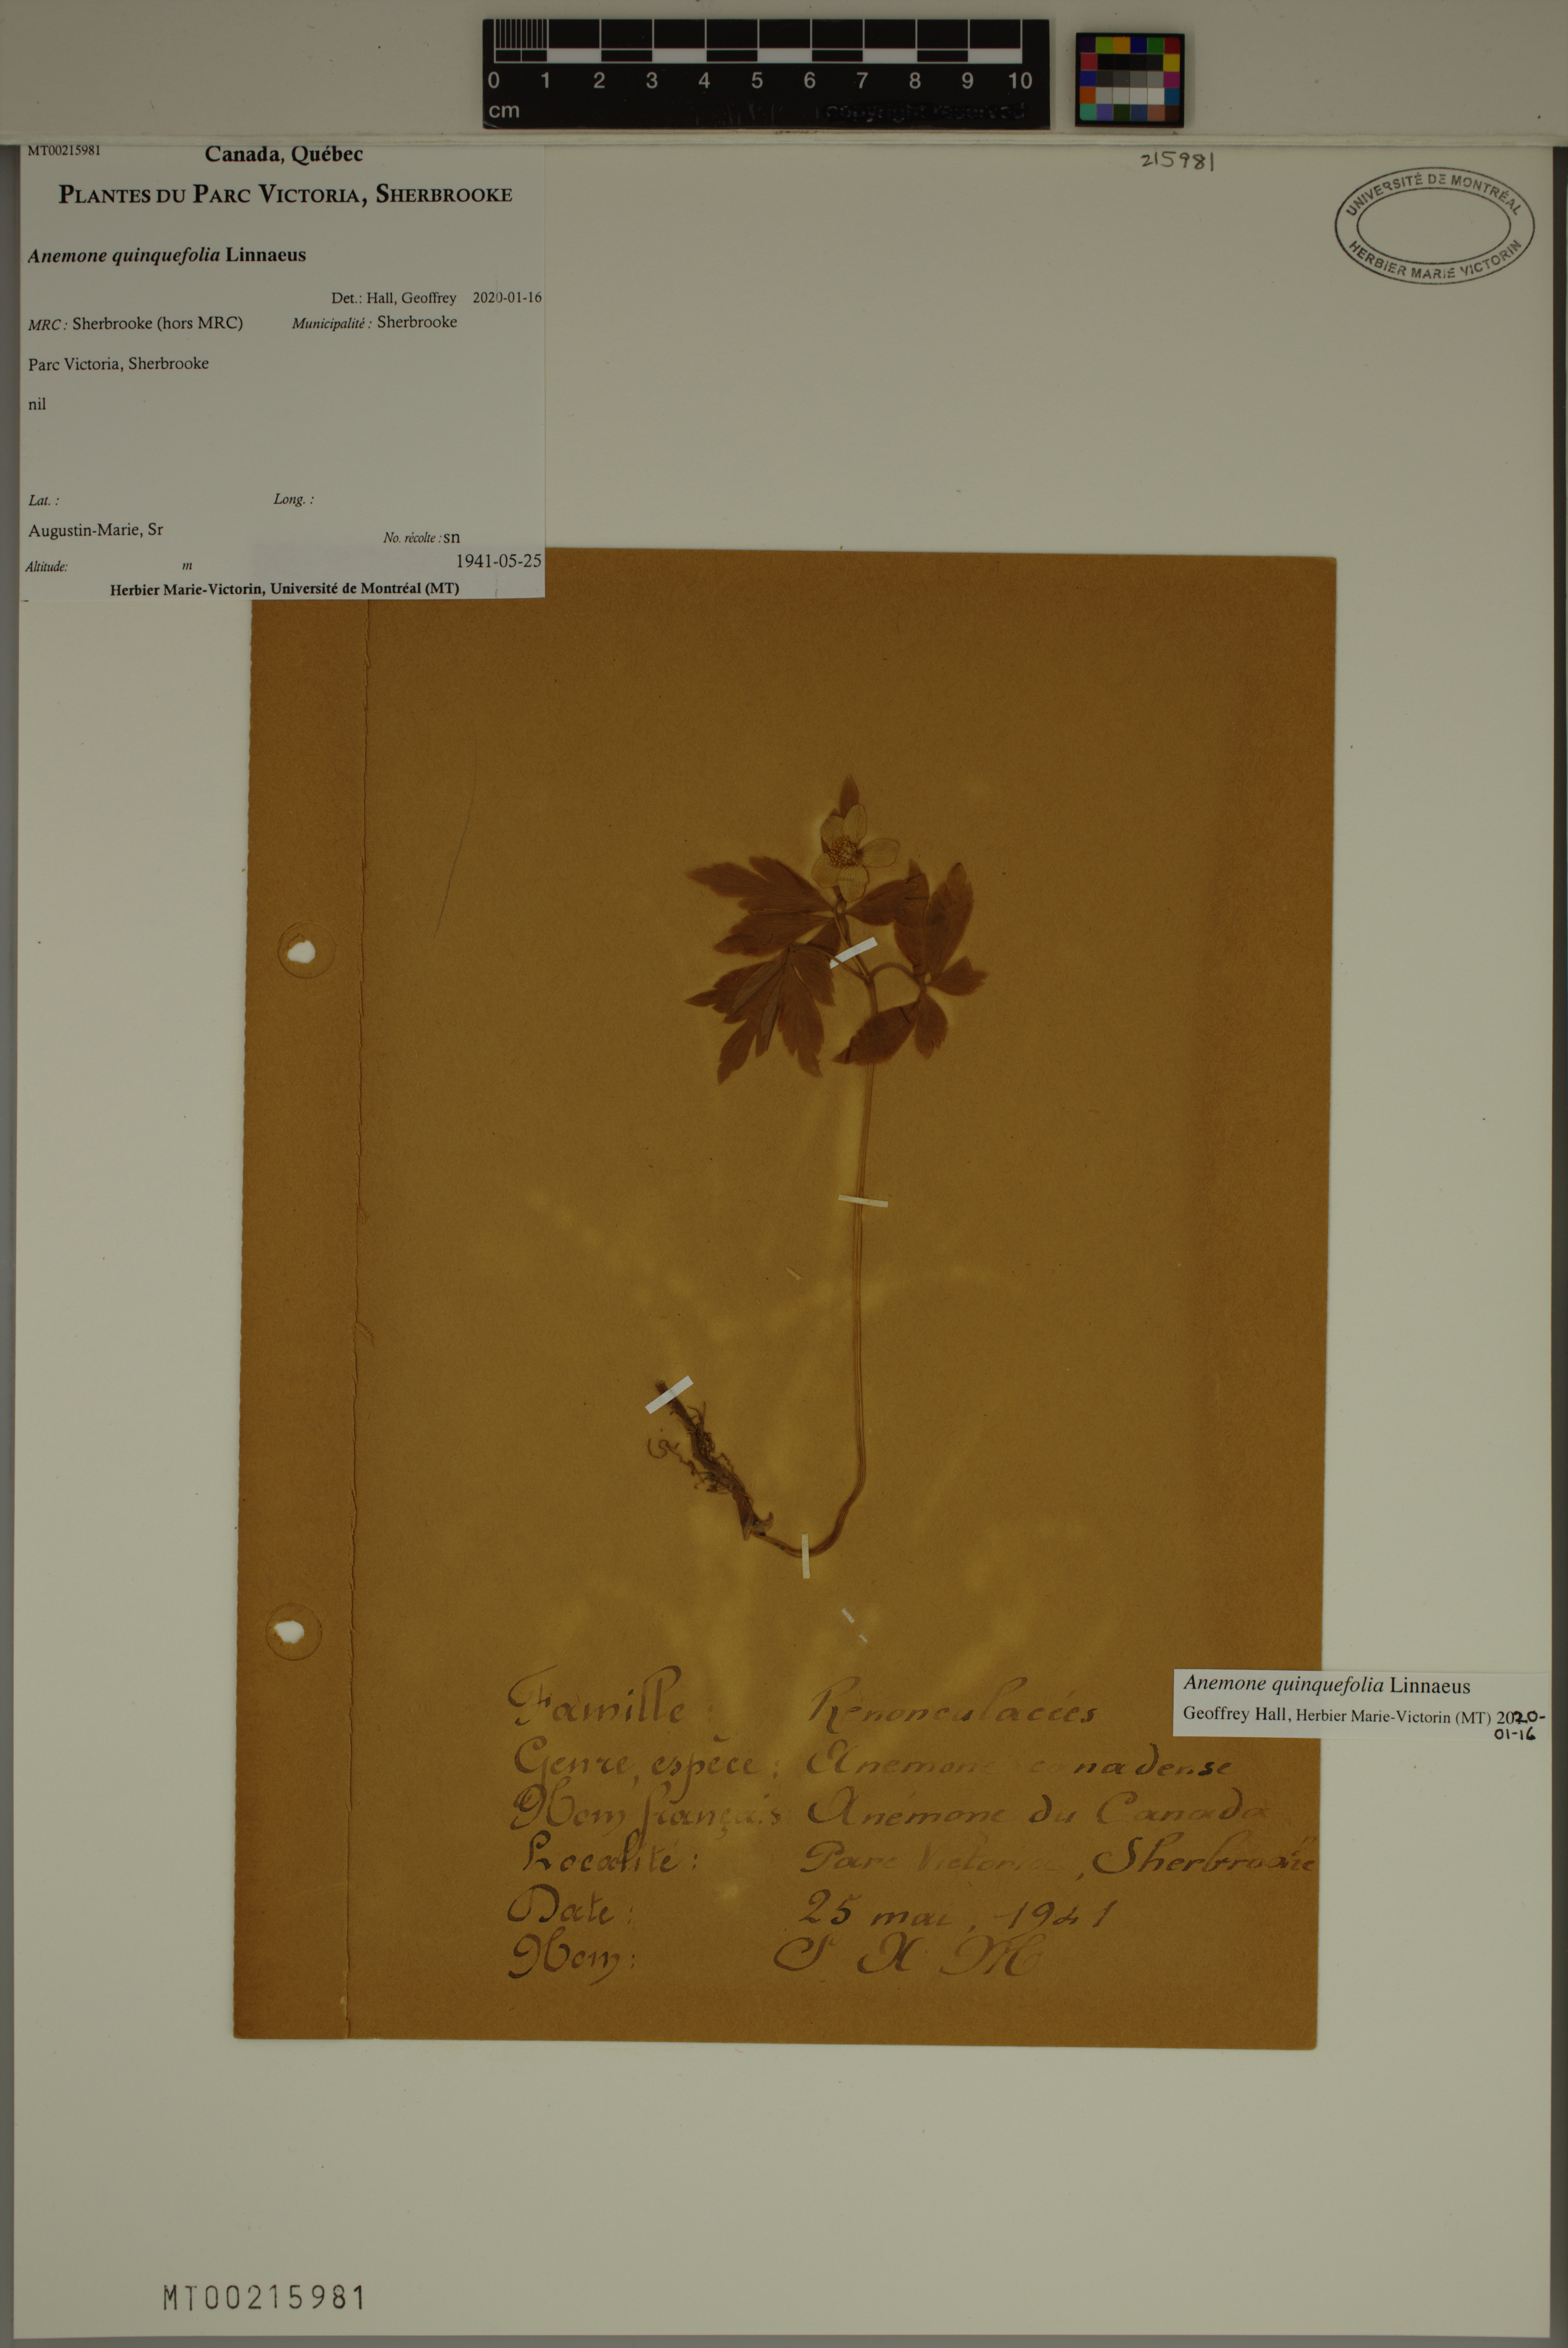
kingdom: Plantae
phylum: Tracheophyta
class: Magnoliopsida
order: Ranunculales
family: Ranunculaceae
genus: Anemone
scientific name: Anemone quinquefolia
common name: Wood anemone
